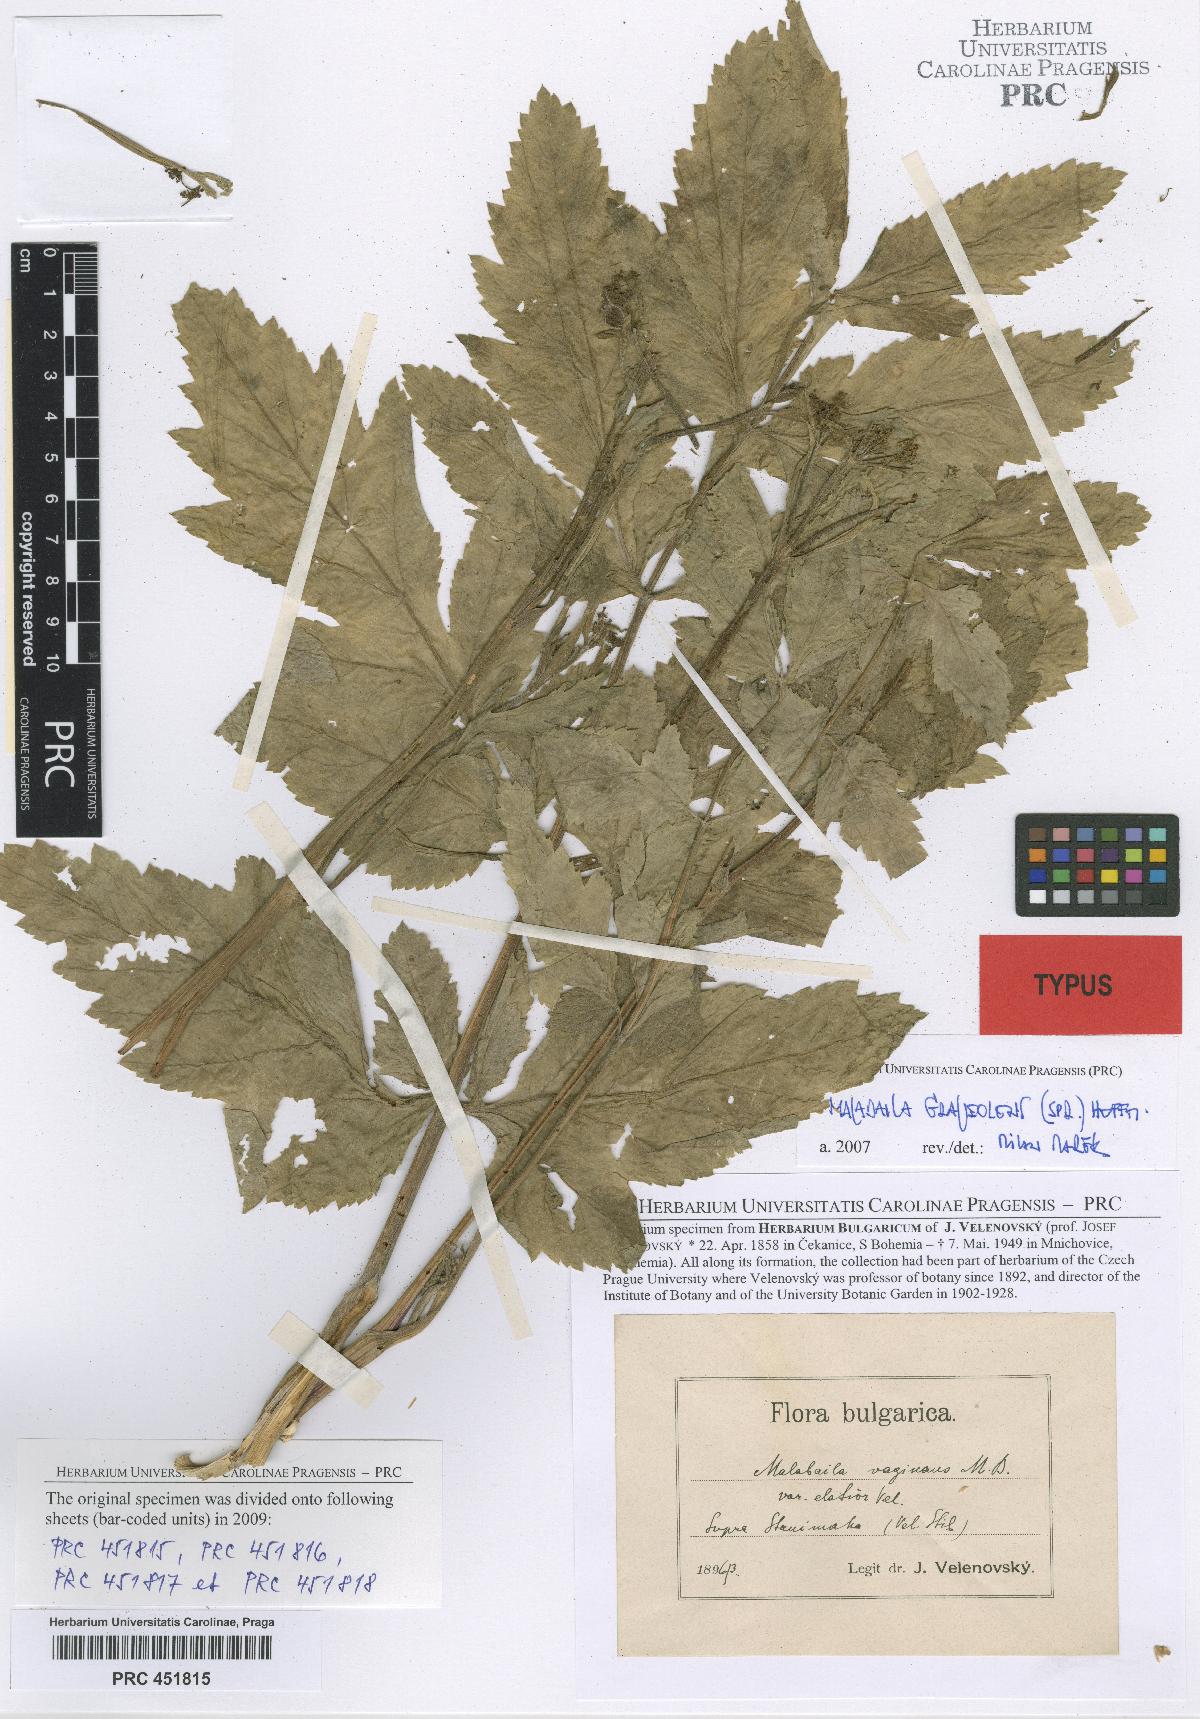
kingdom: Plantae
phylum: Tracheophyta
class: Magnoliopsida
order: Apiales
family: Apiaceae
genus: Pastinaca
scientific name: Pastinaca clausii
